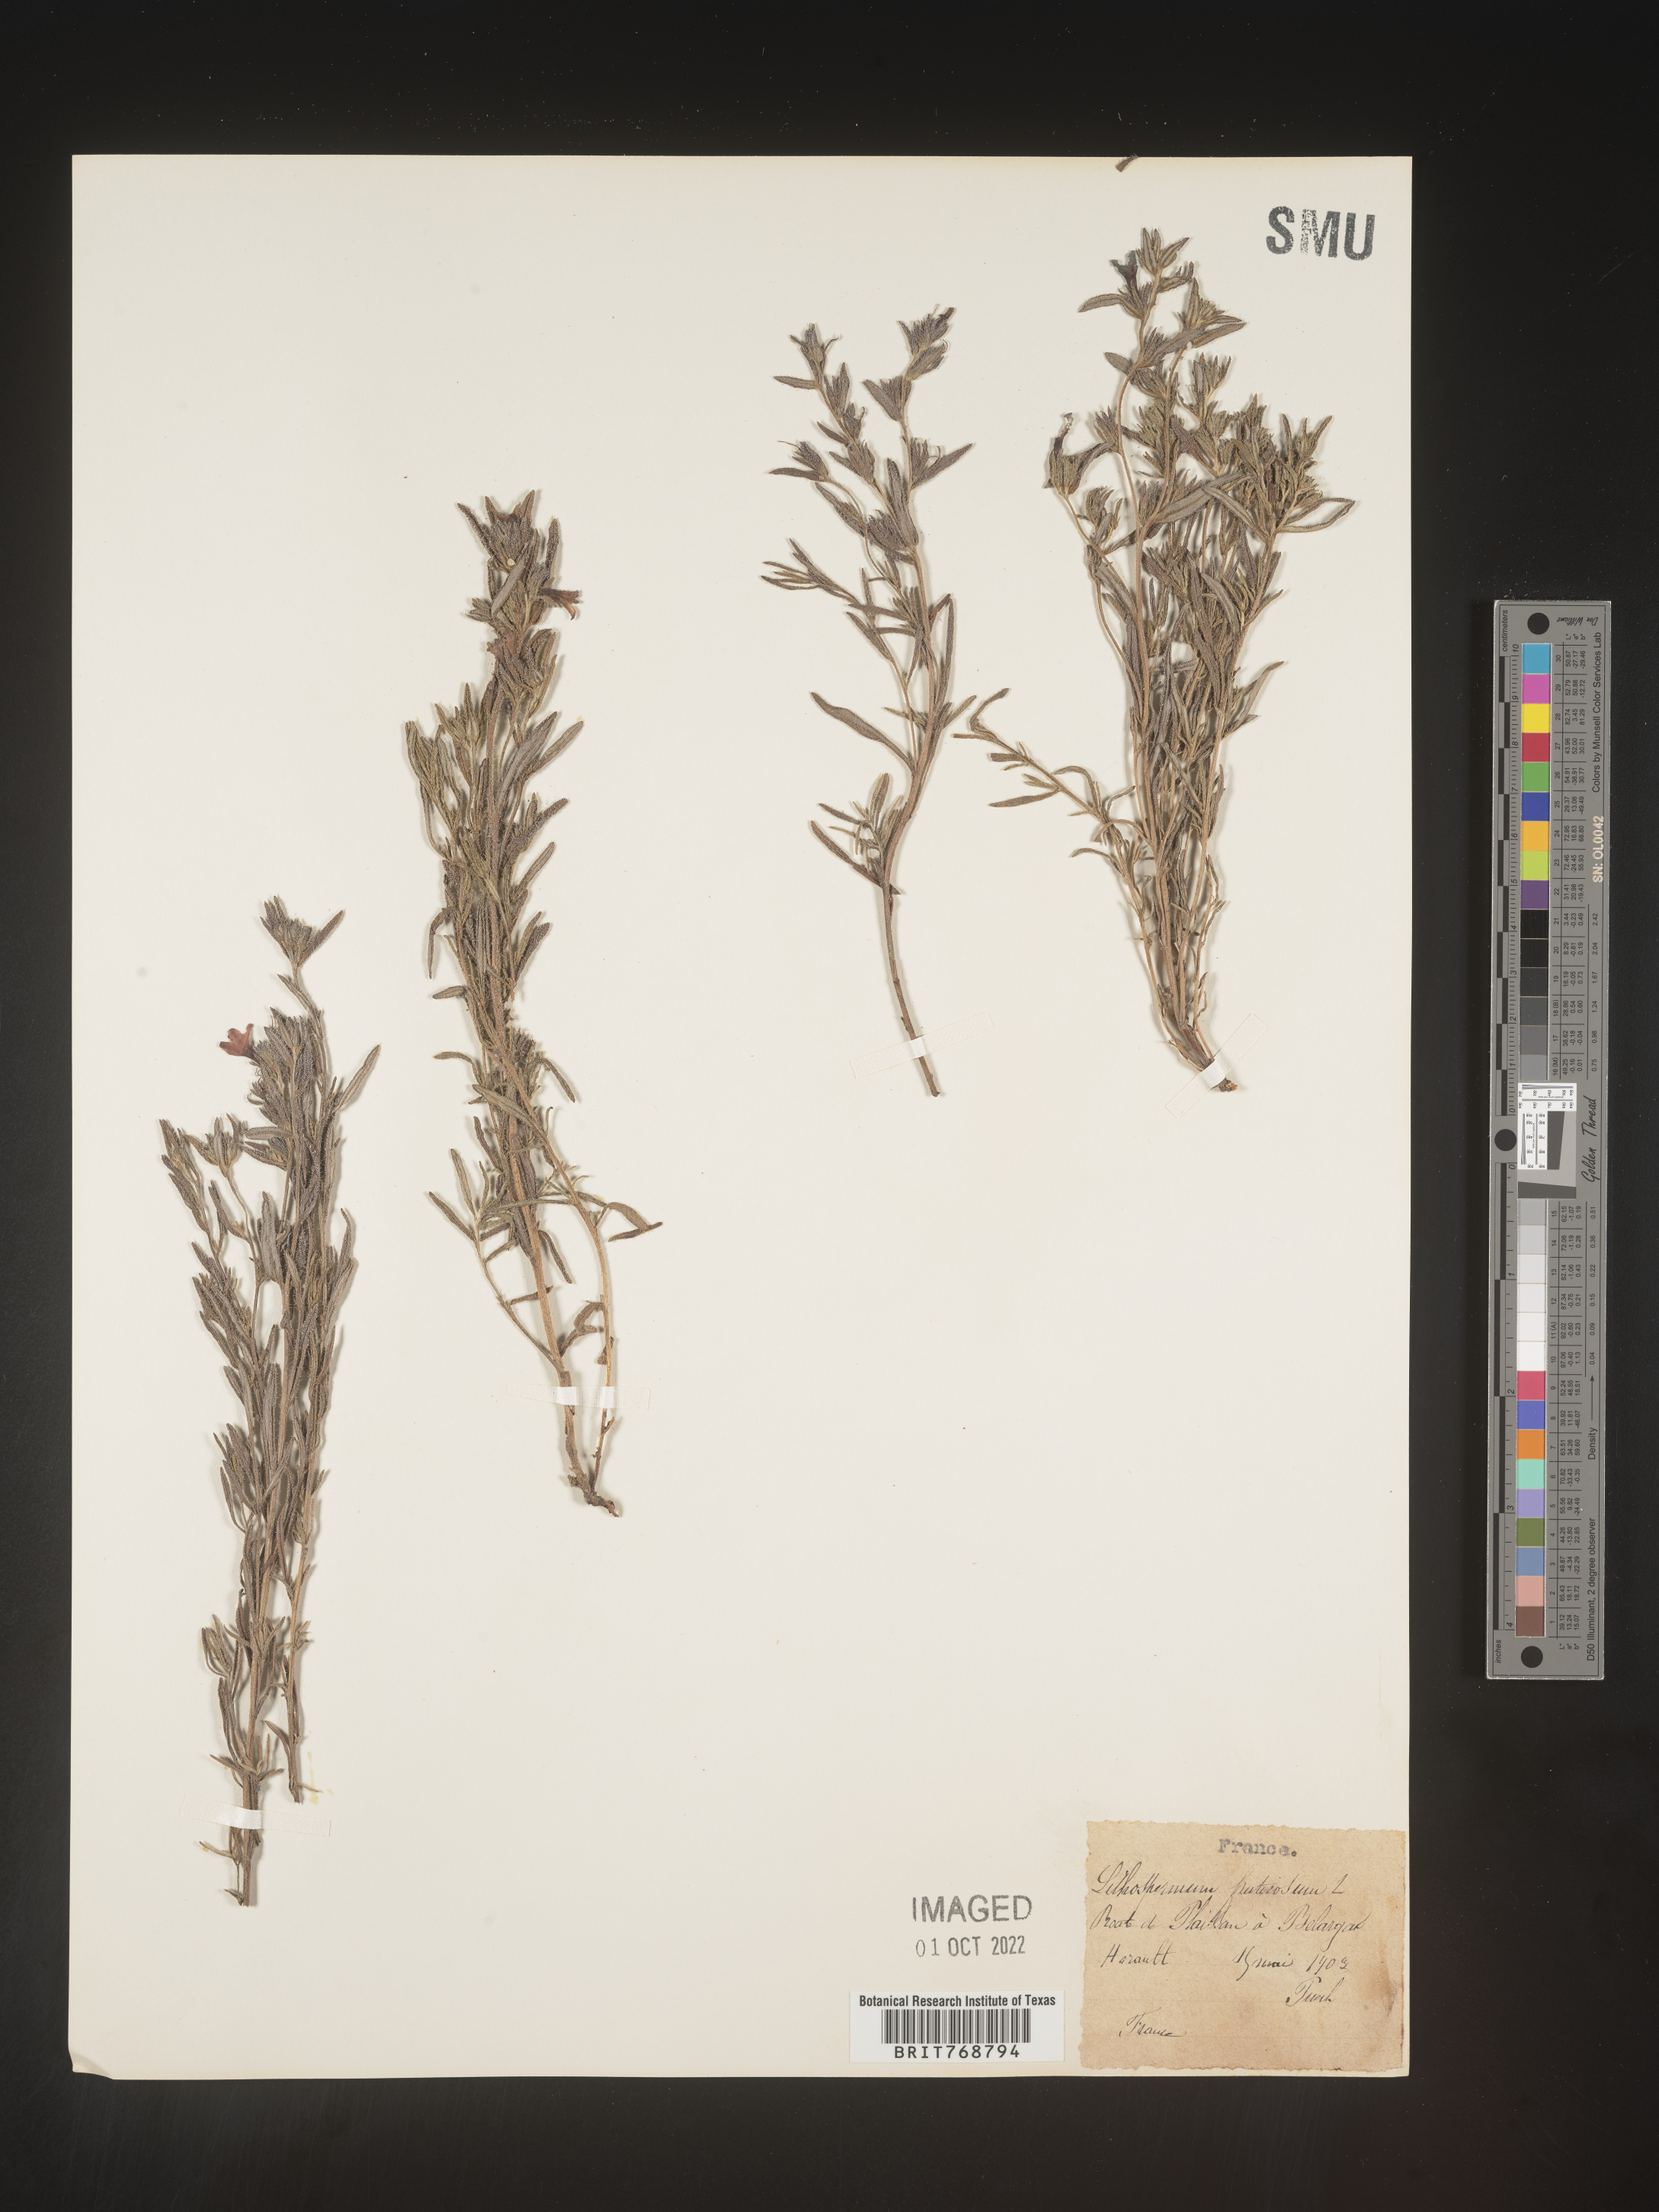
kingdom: Plantae
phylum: Tracheophyta
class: Magnoliopsida
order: Boraginales
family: Boraginaceae
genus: Lithospermum
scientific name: Lithospermum
